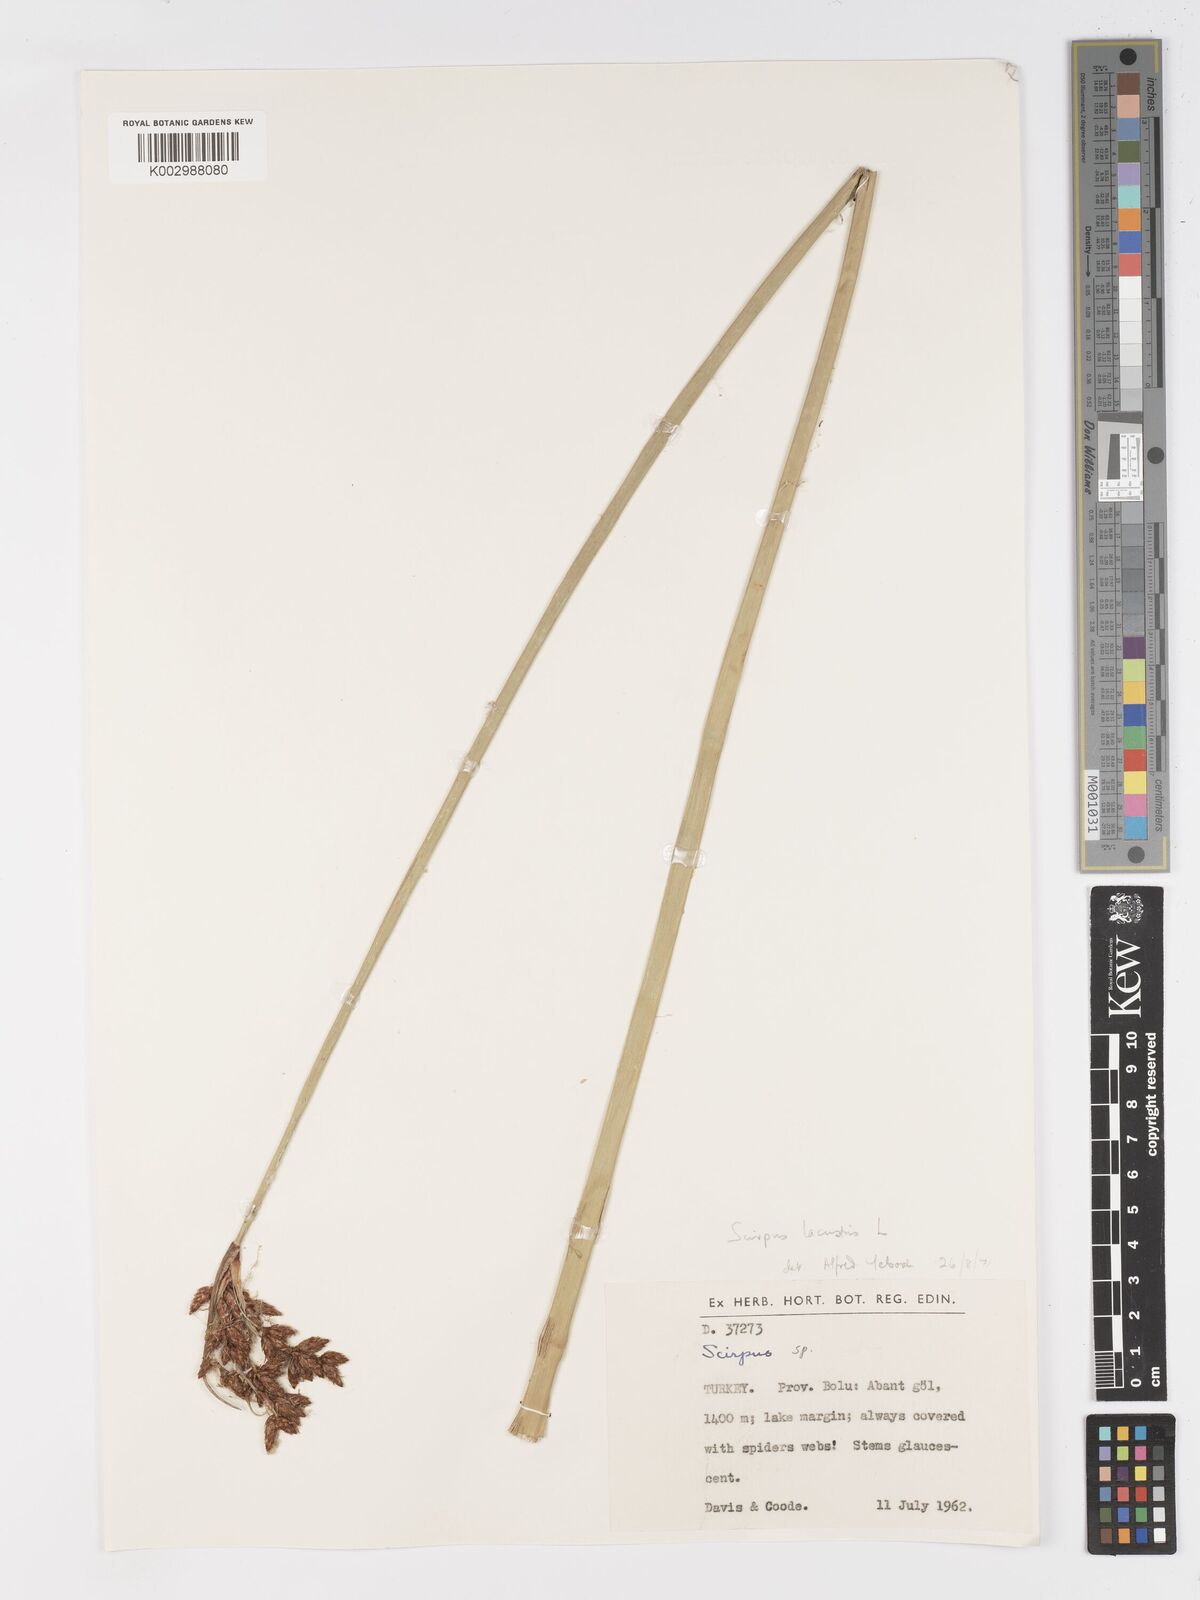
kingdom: Plantae
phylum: Tracheophyta
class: Liliopsida
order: Poales
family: Cyperaceae
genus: Schoenoplectus
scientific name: Schoenoplectus
